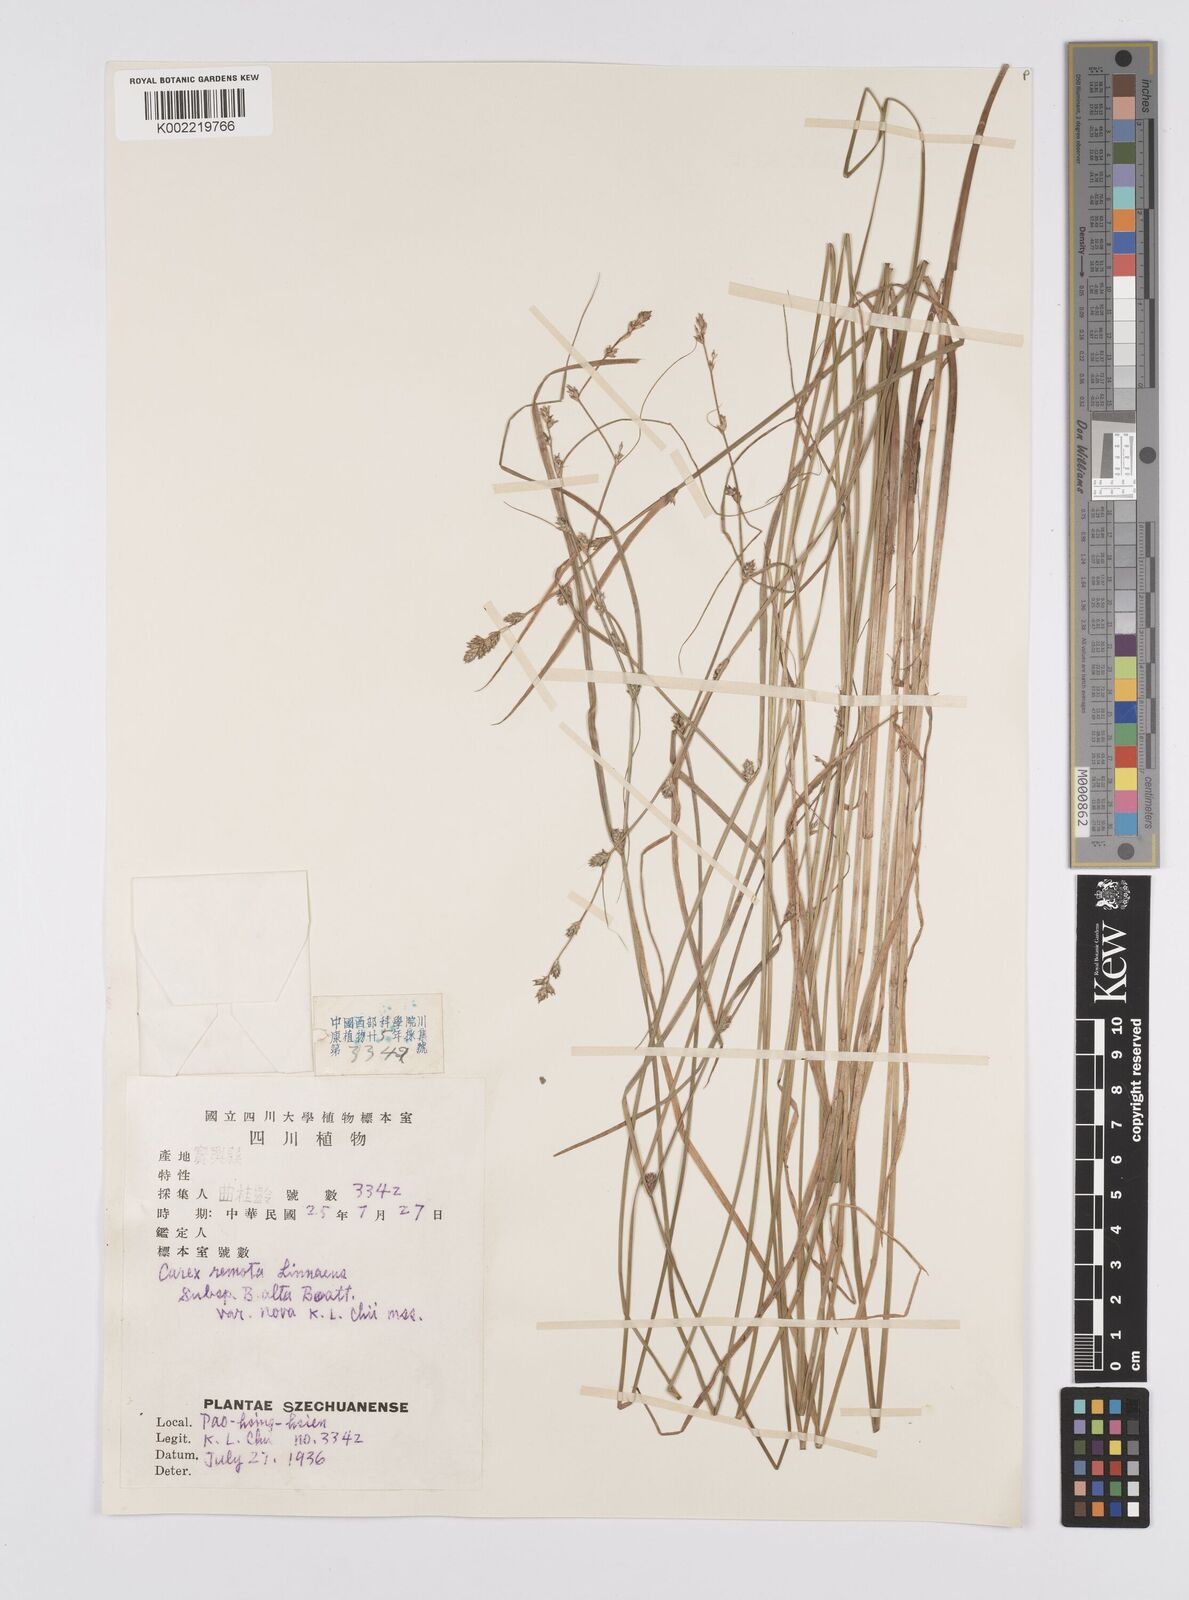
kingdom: Plantae
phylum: Tracheophyta
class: Liliopsida
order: Poales
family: Cyperaceae
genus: Carex
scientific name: Carex remota
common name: Remote sedge
